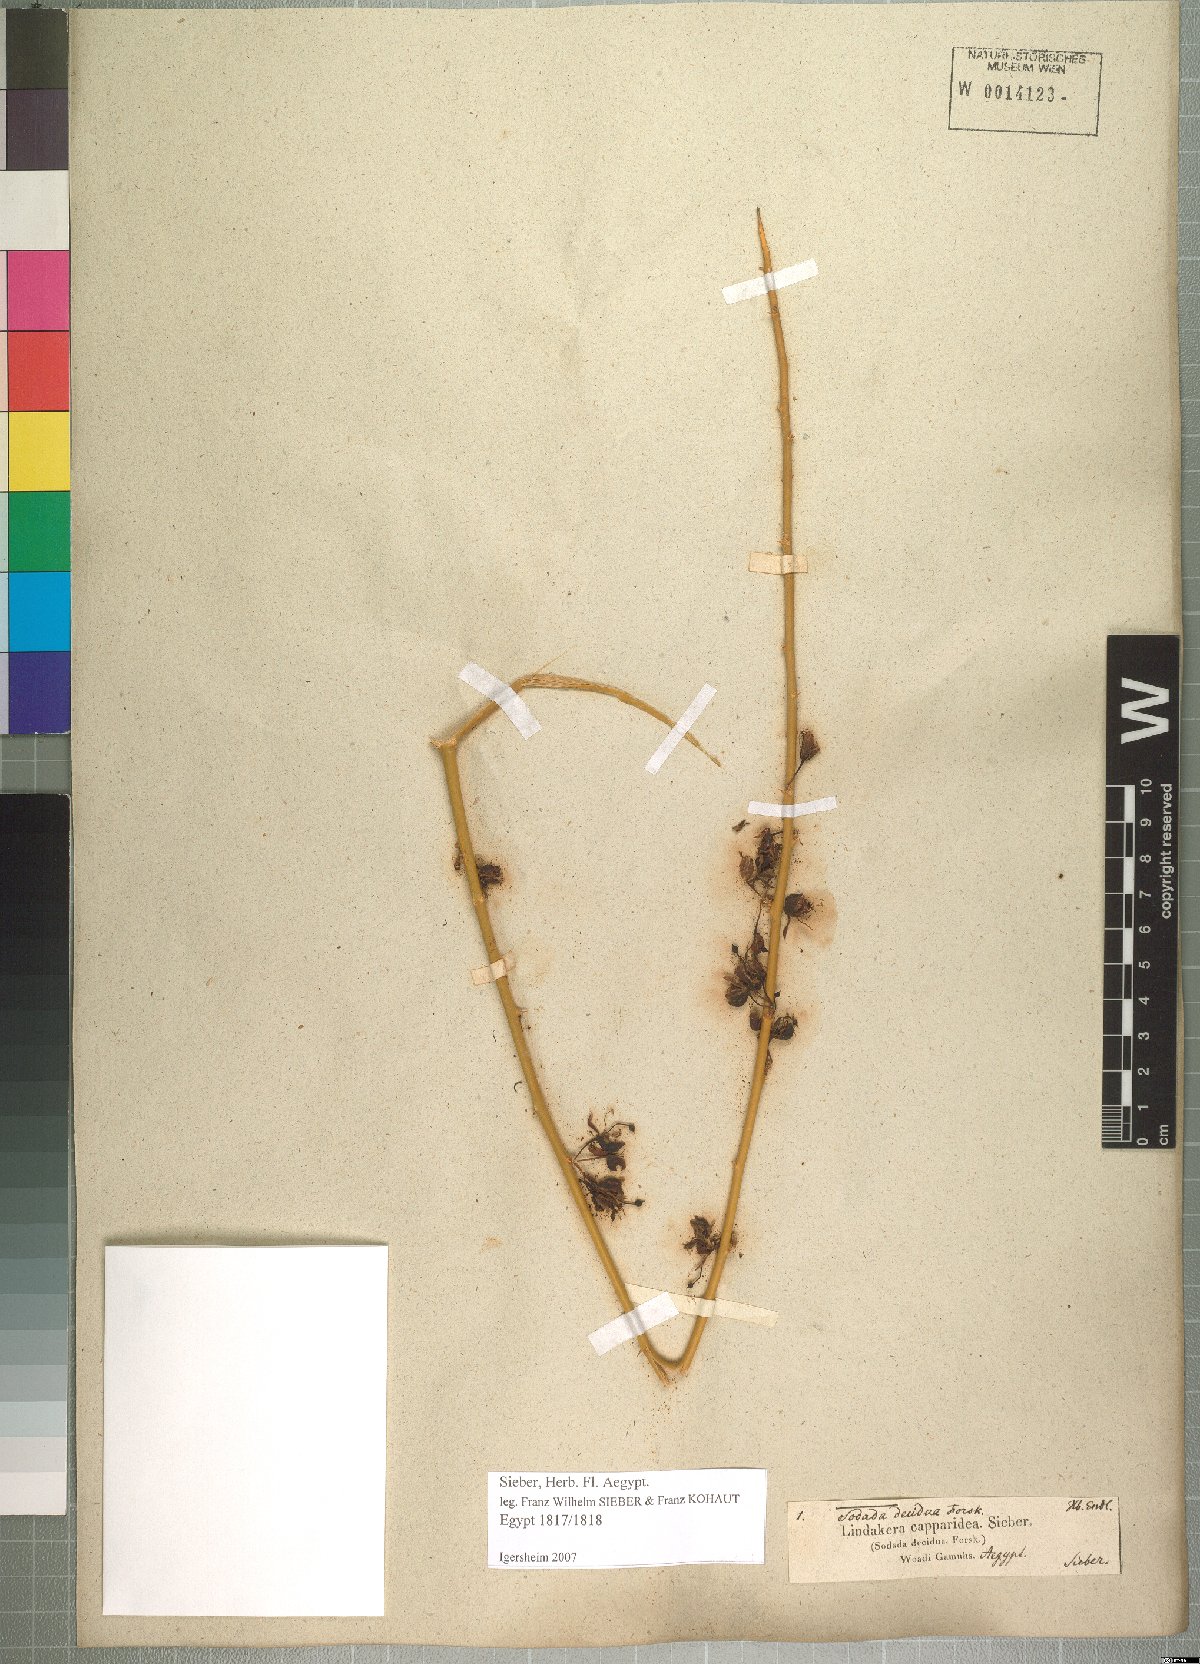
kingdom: Plantae
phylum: Tracheophyta
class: Magnoliopsida
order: Brassicales
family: Capparaceae
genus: Capparis
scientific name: Capparis decidua
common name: Sodada
